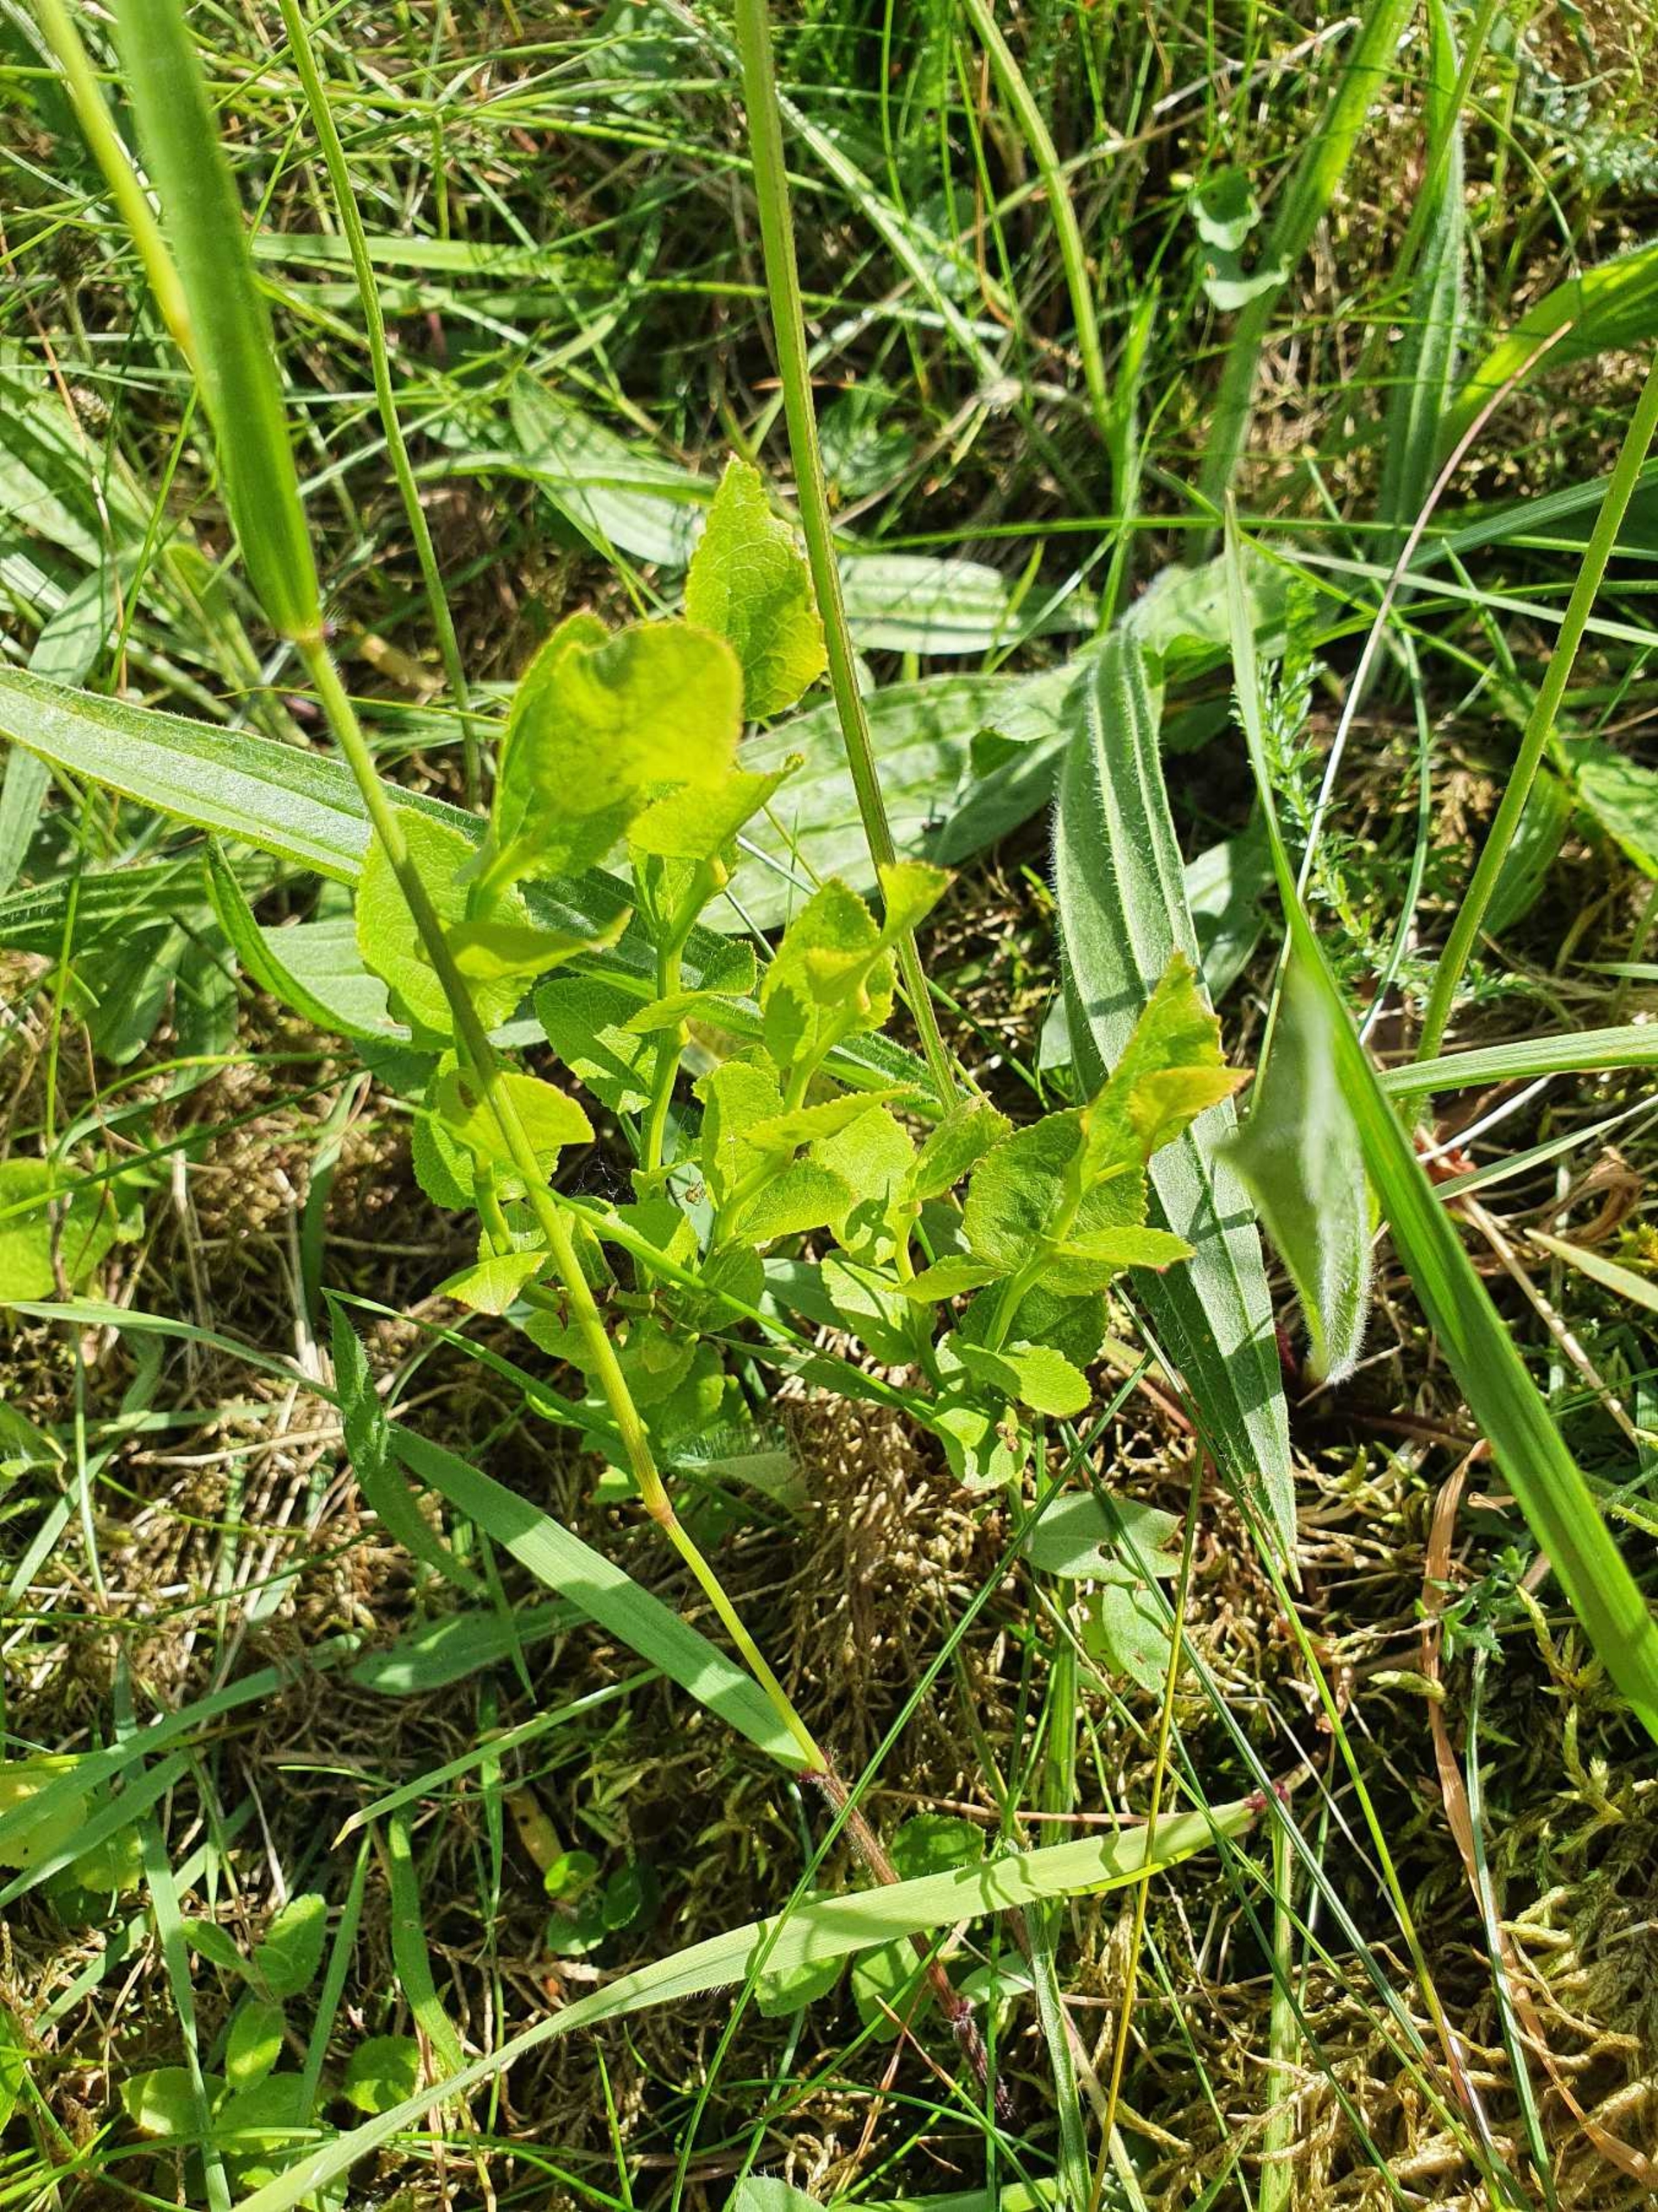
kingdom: Plantae
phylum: Tracheophyta
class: Magnoliopsida
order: Ericales
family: Ericaceae
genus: Vaccinium
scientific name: Vaccinium myrtillus
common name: Blåbær
